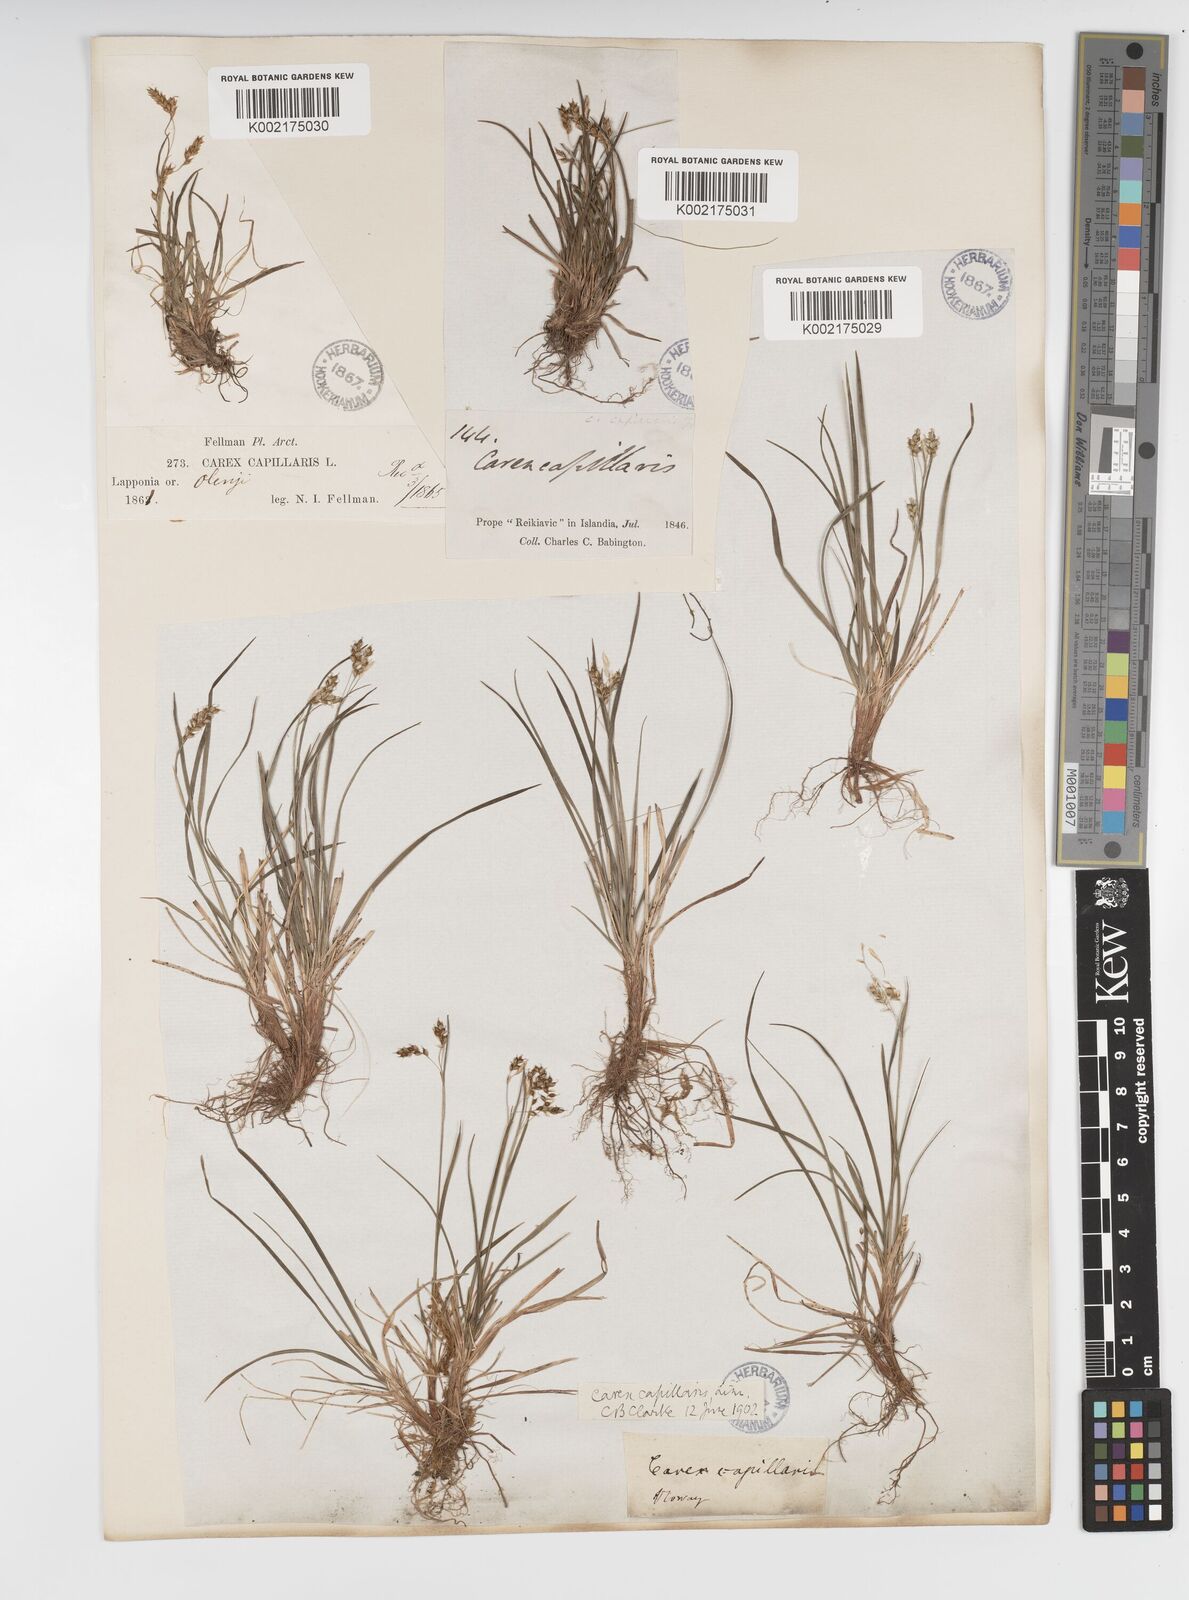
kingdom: Plantae
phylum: Tracheophyta
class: Liliopsida
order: Poales
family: Cyperaceae
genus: Carex
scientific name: Carex capillaris
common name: Hair sedge
